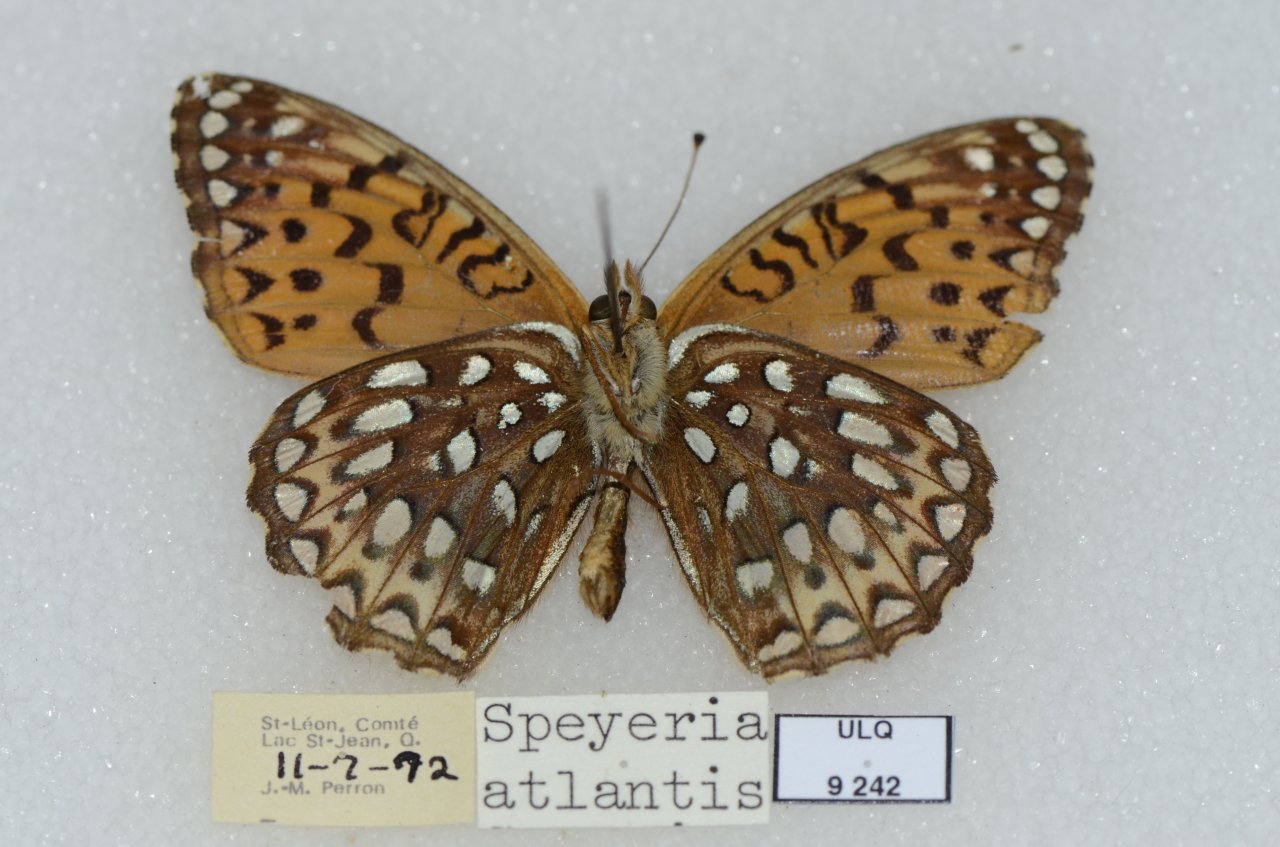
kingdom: Animalia
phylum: Arthropoda
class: Insecta
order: Lepidoptera
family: Nymphalidae
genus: Speyeria
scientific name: Speyeria atlantis
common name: Atlantis Fritillary
